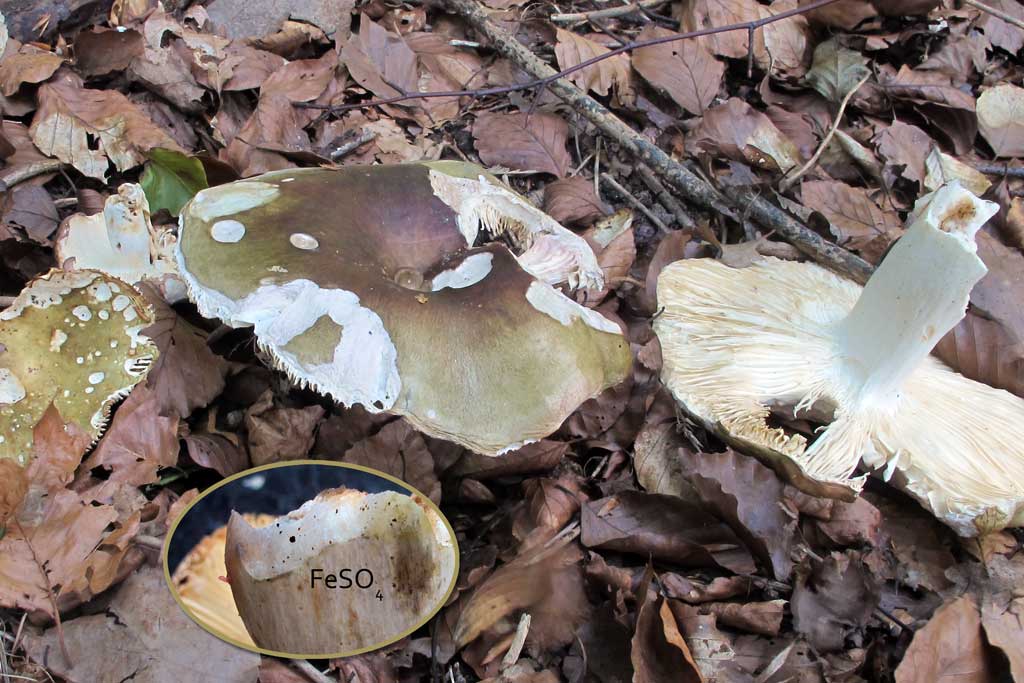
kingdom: Fungi
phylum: Basidiomycota
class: Agaricomycetes
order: Russulales
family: Russulaceae
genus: Russula
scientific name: Russula clavipes
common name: olivengrøn skørhat
